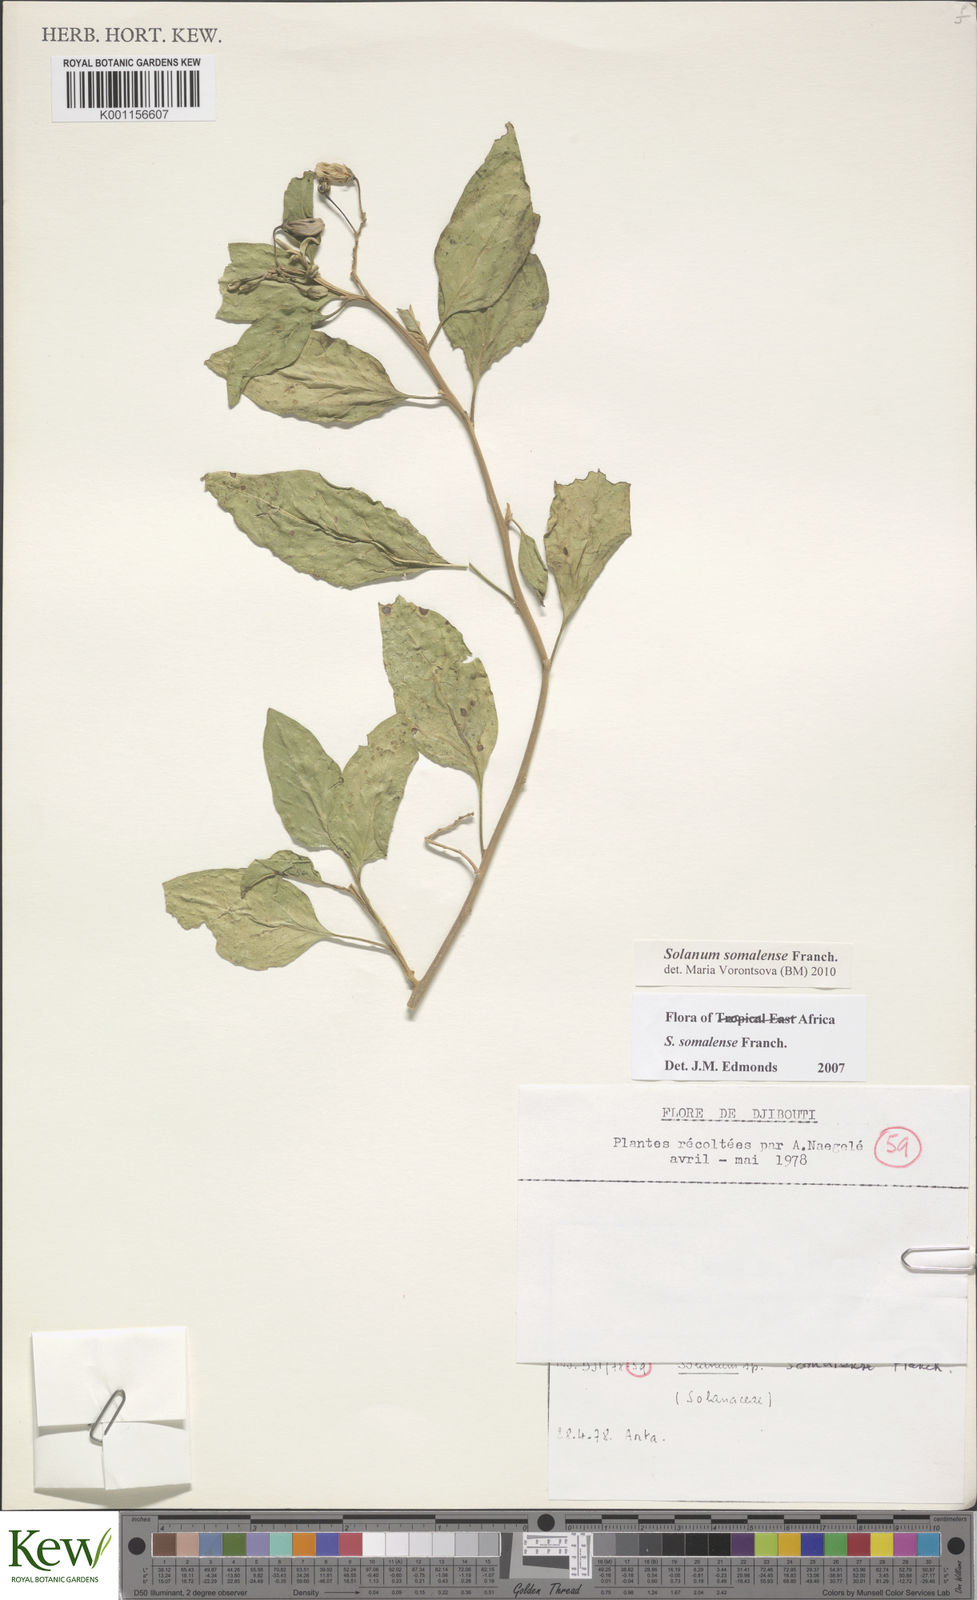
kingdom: Plantae
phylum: Tracheophyta
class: Magnoliopsida
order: Solanales
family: Solanaceae
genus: Solanum
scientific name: Solanum somalense
